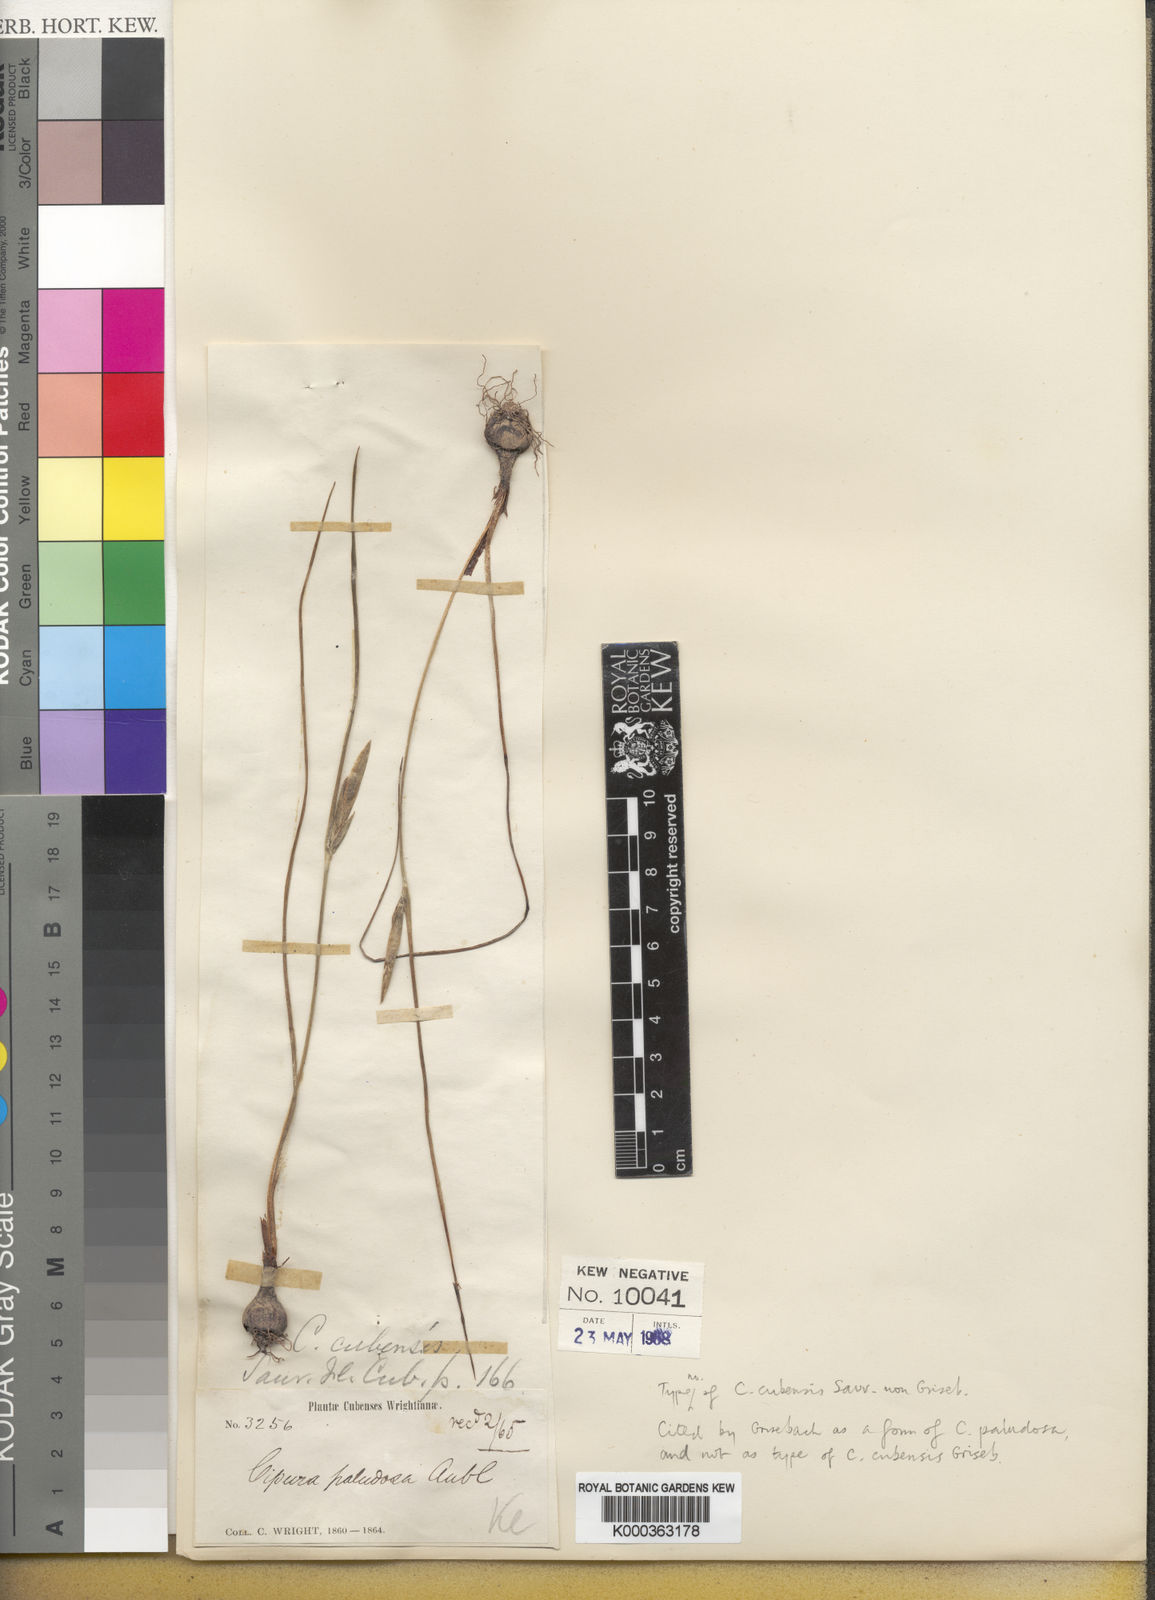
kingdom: Plantae
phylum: Tracheophyta
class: Liliopsida
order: Asparagales
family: Iridaceae
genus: Cipura
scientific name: Cipura insularis
